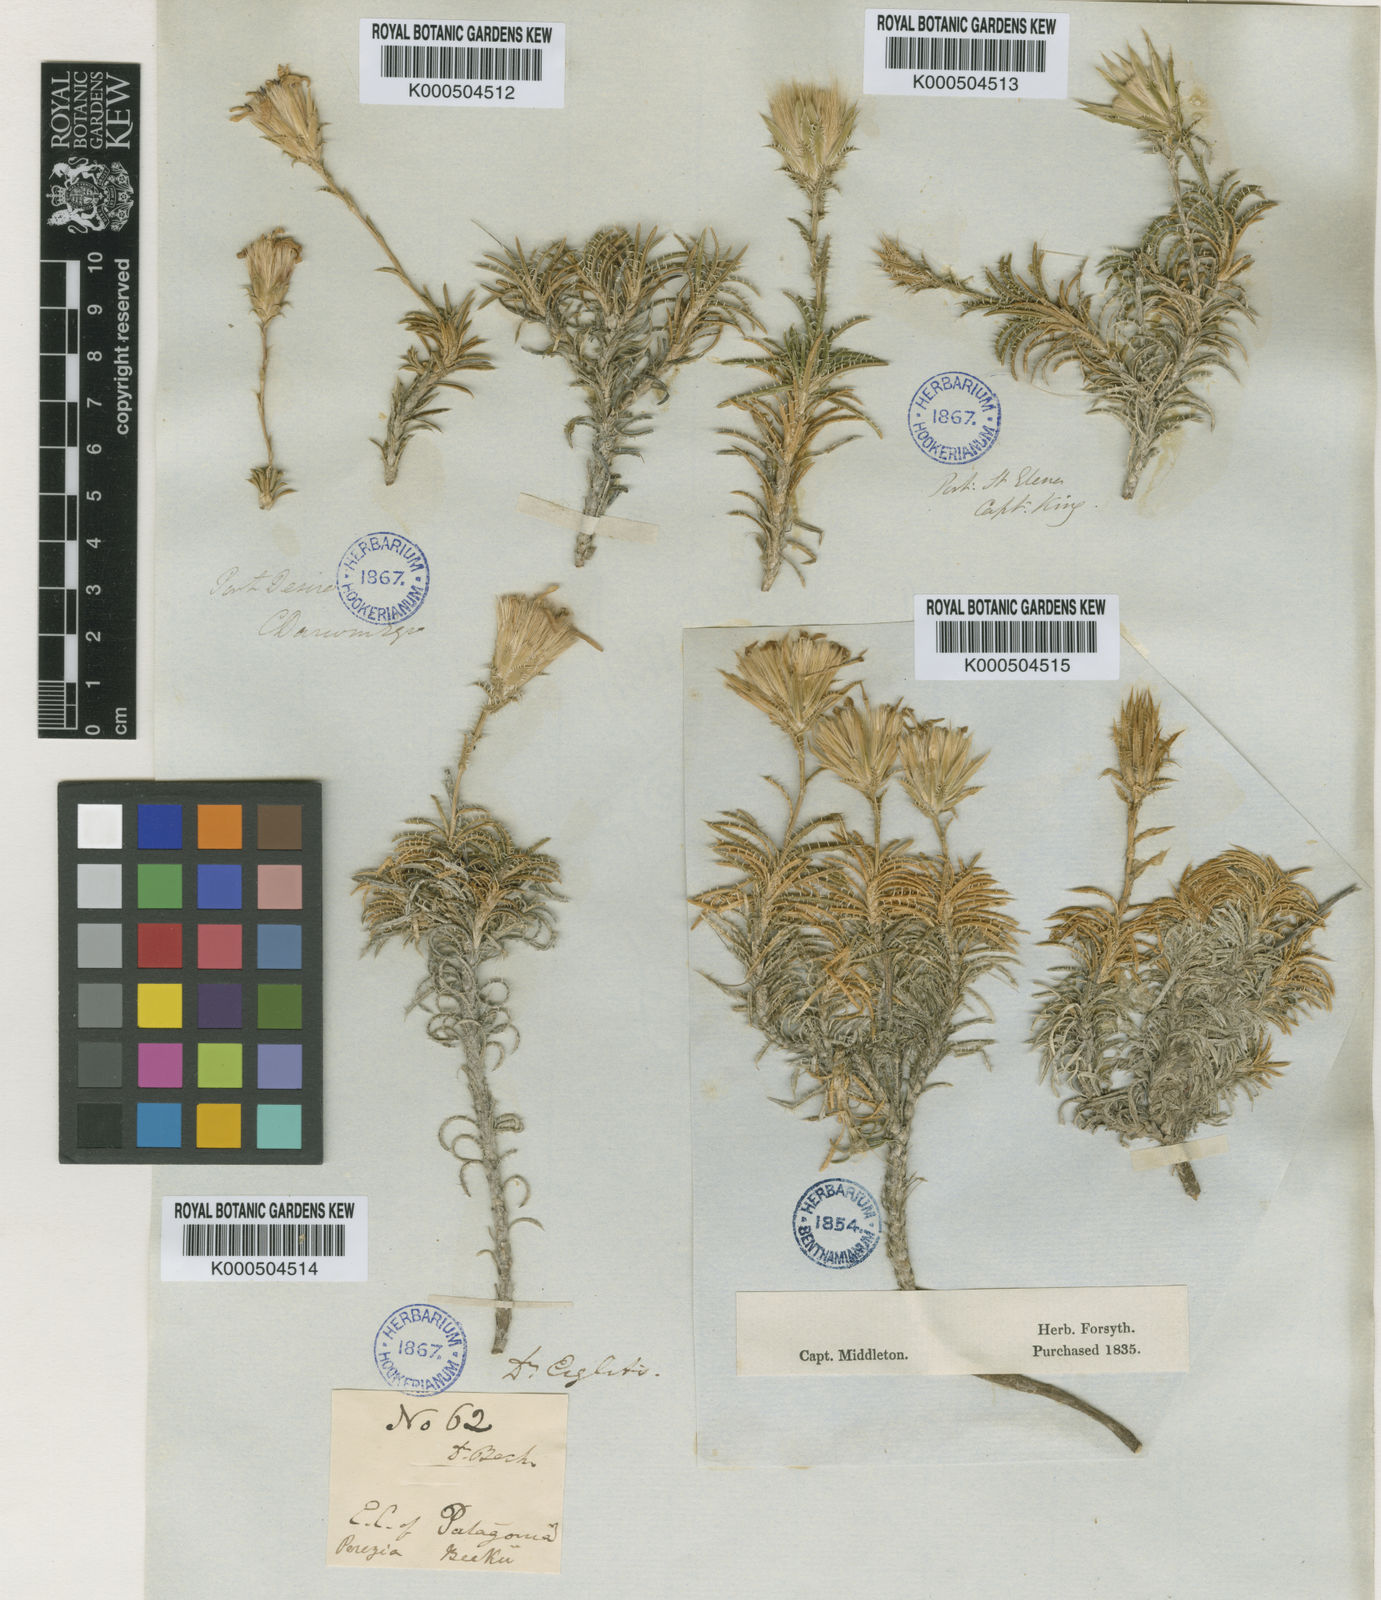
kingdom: Plantae
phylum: Tracheophyta
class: Magnoliopsida
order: Asterales
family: Asteraceae
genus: Perezia
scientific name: Perezia recurvata
